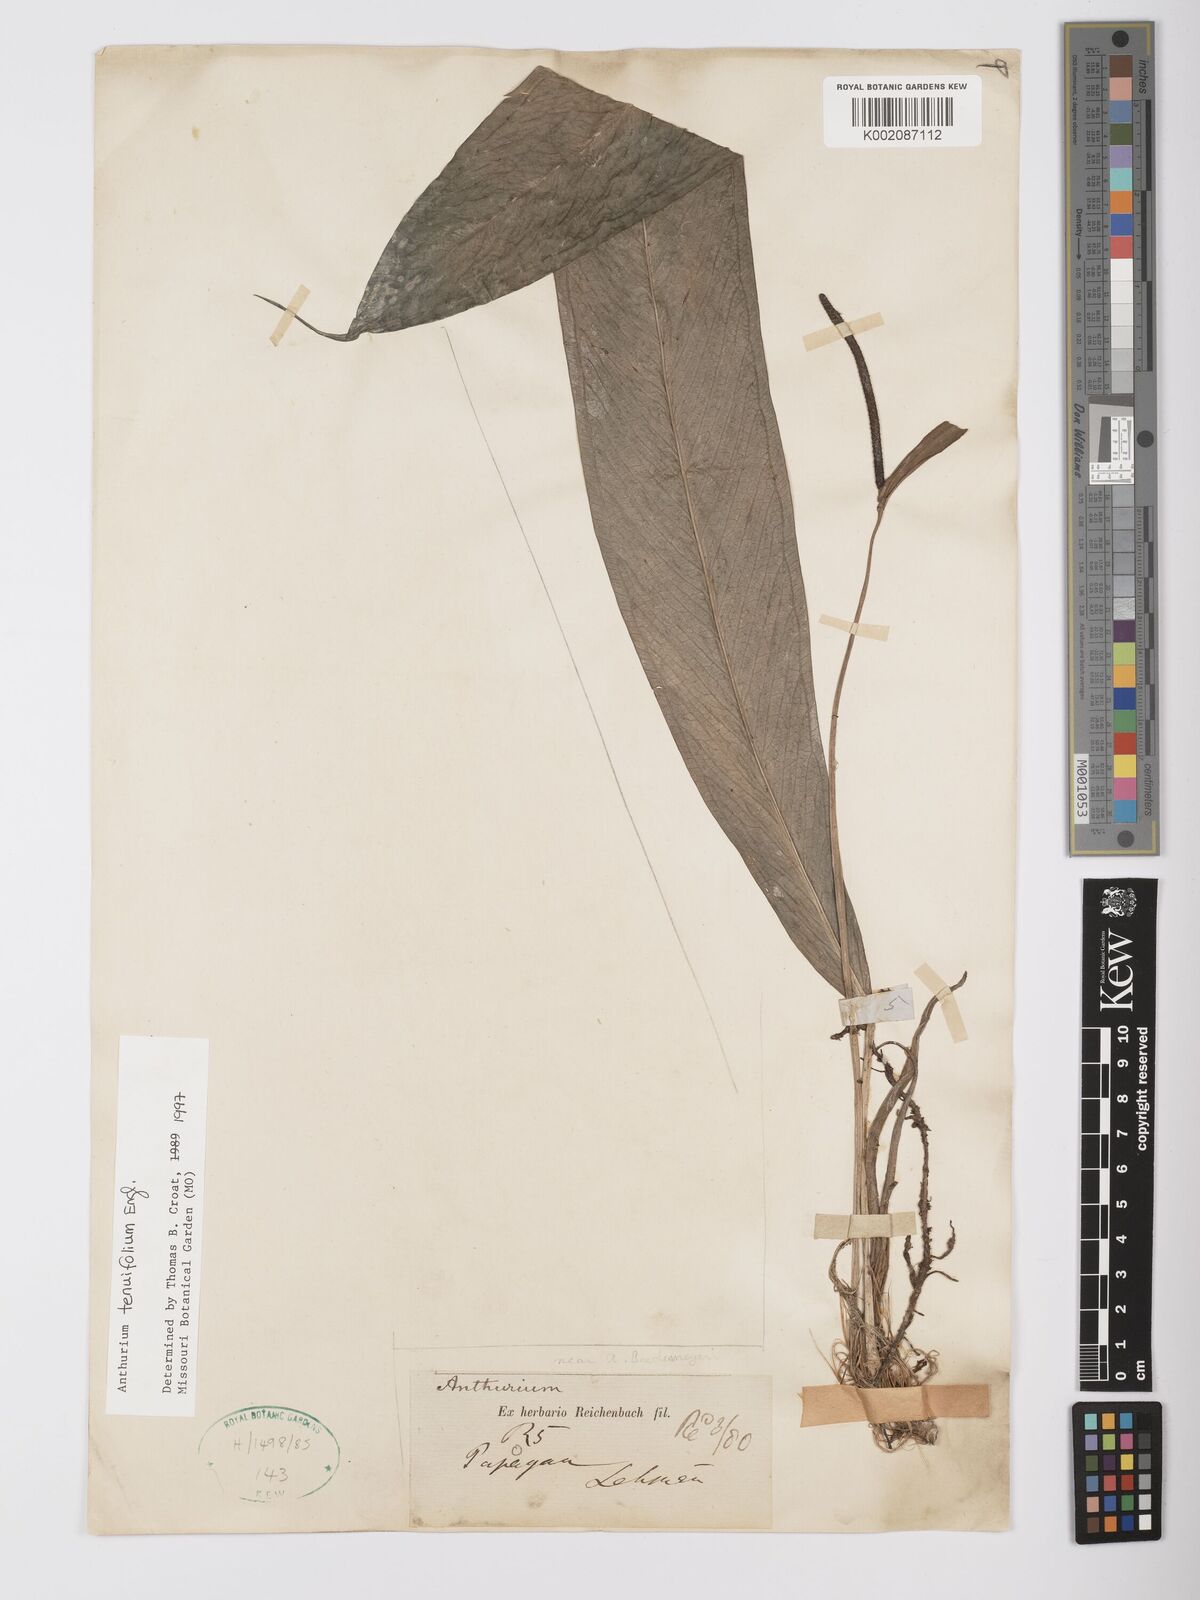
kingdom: Plantae
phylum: Tracheophyta
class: Liliopsida
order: Alismatales
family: Araceae
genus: Anthurium
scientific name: Anthurium tenuifolium
